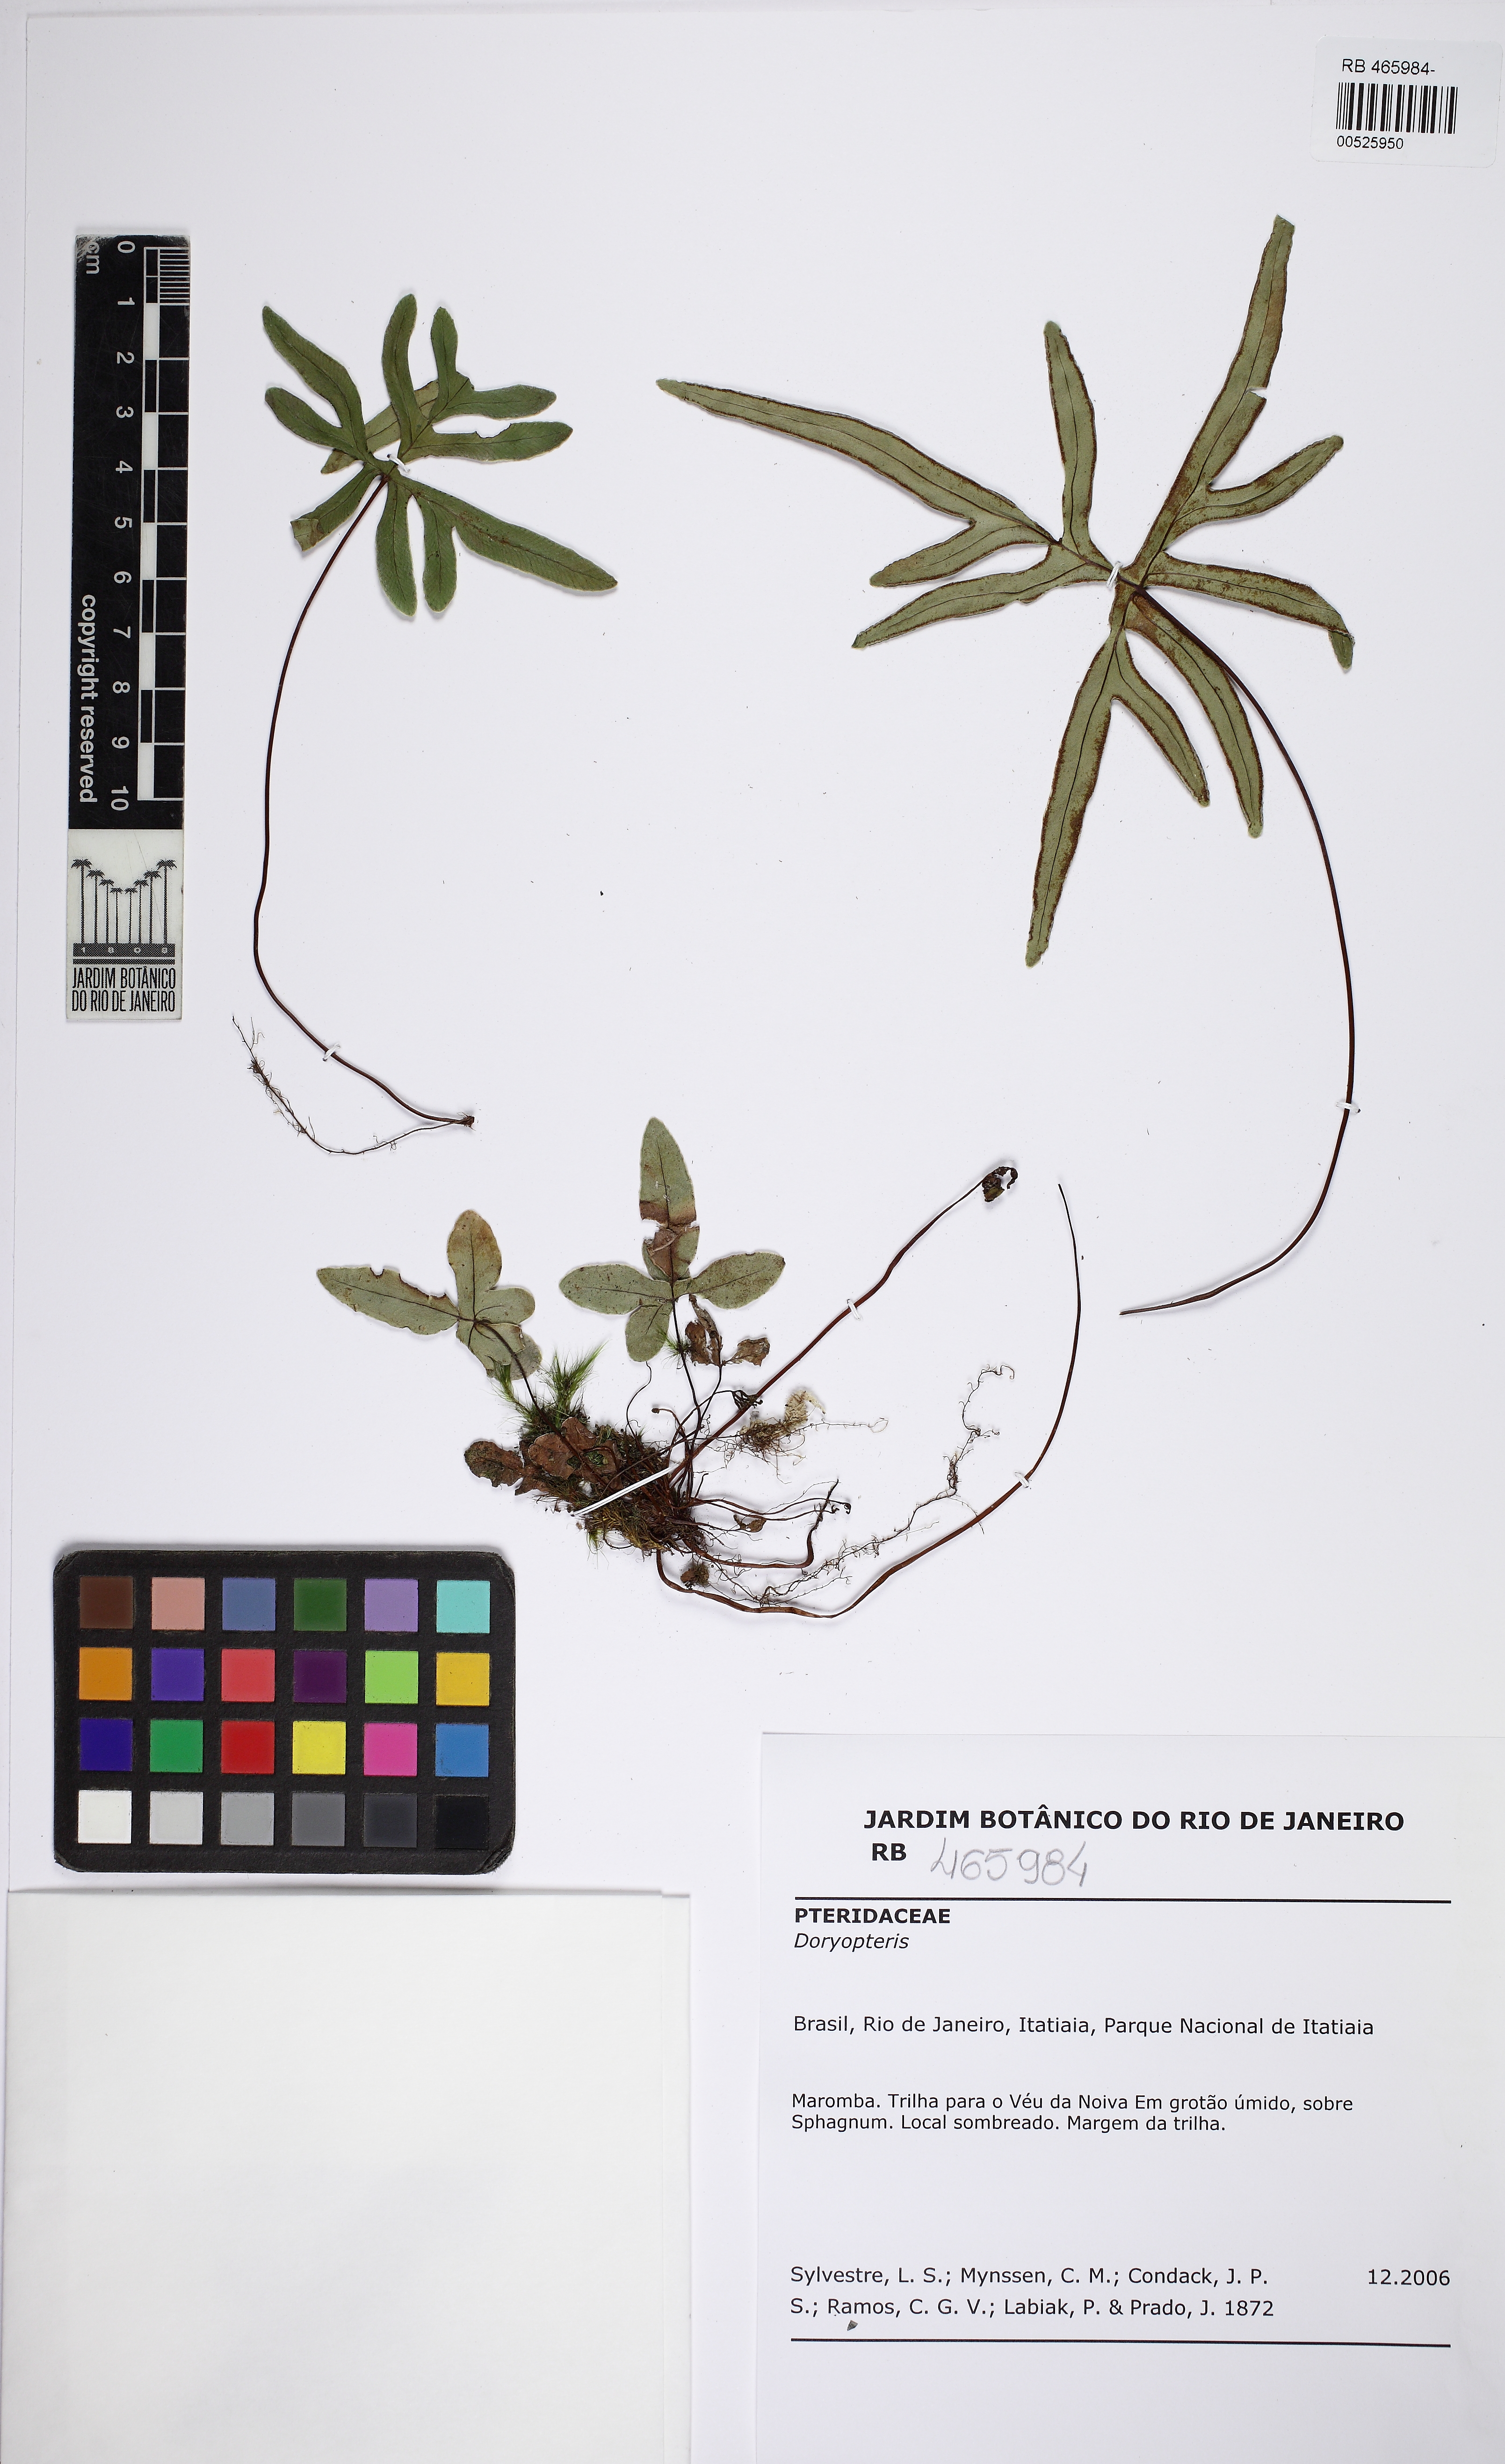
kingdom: Plantae
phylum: Tracheophyta
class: Polypodiopsida
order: Polypodiales
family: Pteridaceae
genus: Lytoneuron
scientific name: Lytoneuron lomariaceum
